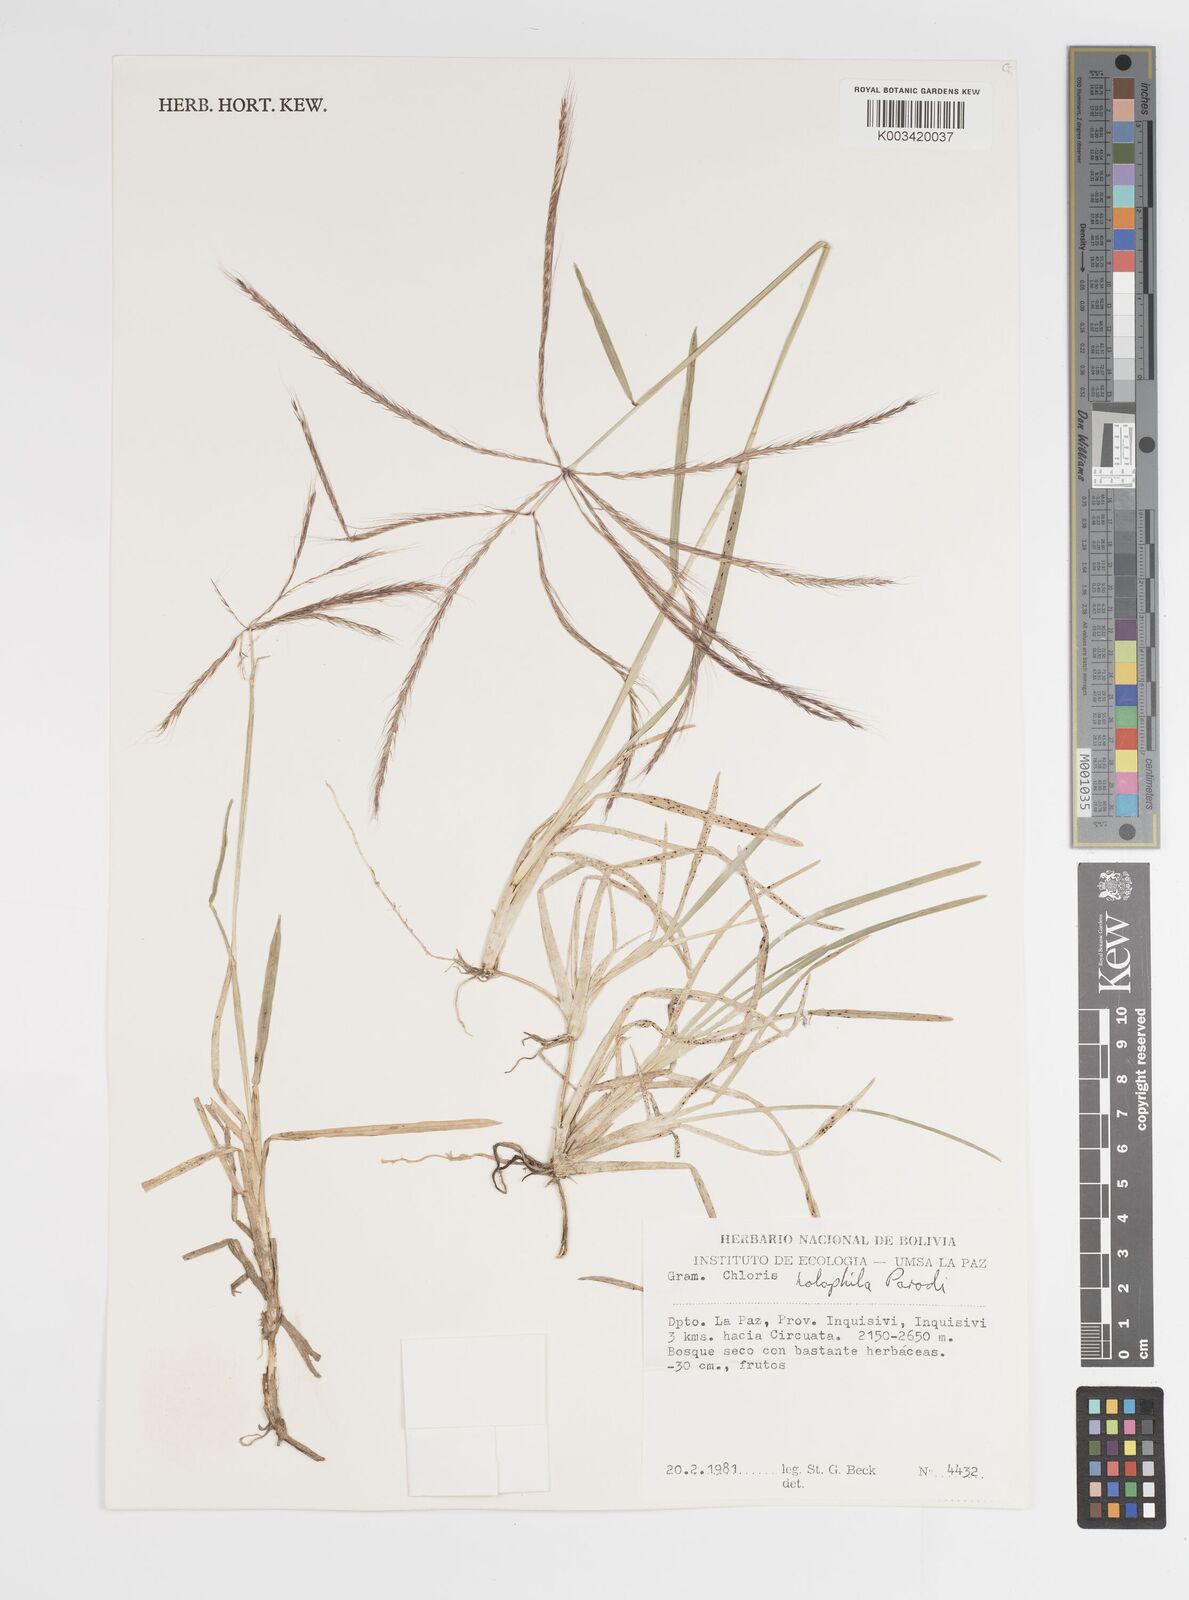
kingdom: Plantae
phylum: Tracheophyta
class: Liliopsida
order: Poales
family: Poaceae
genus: Chloris
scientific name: Chloris halophila
